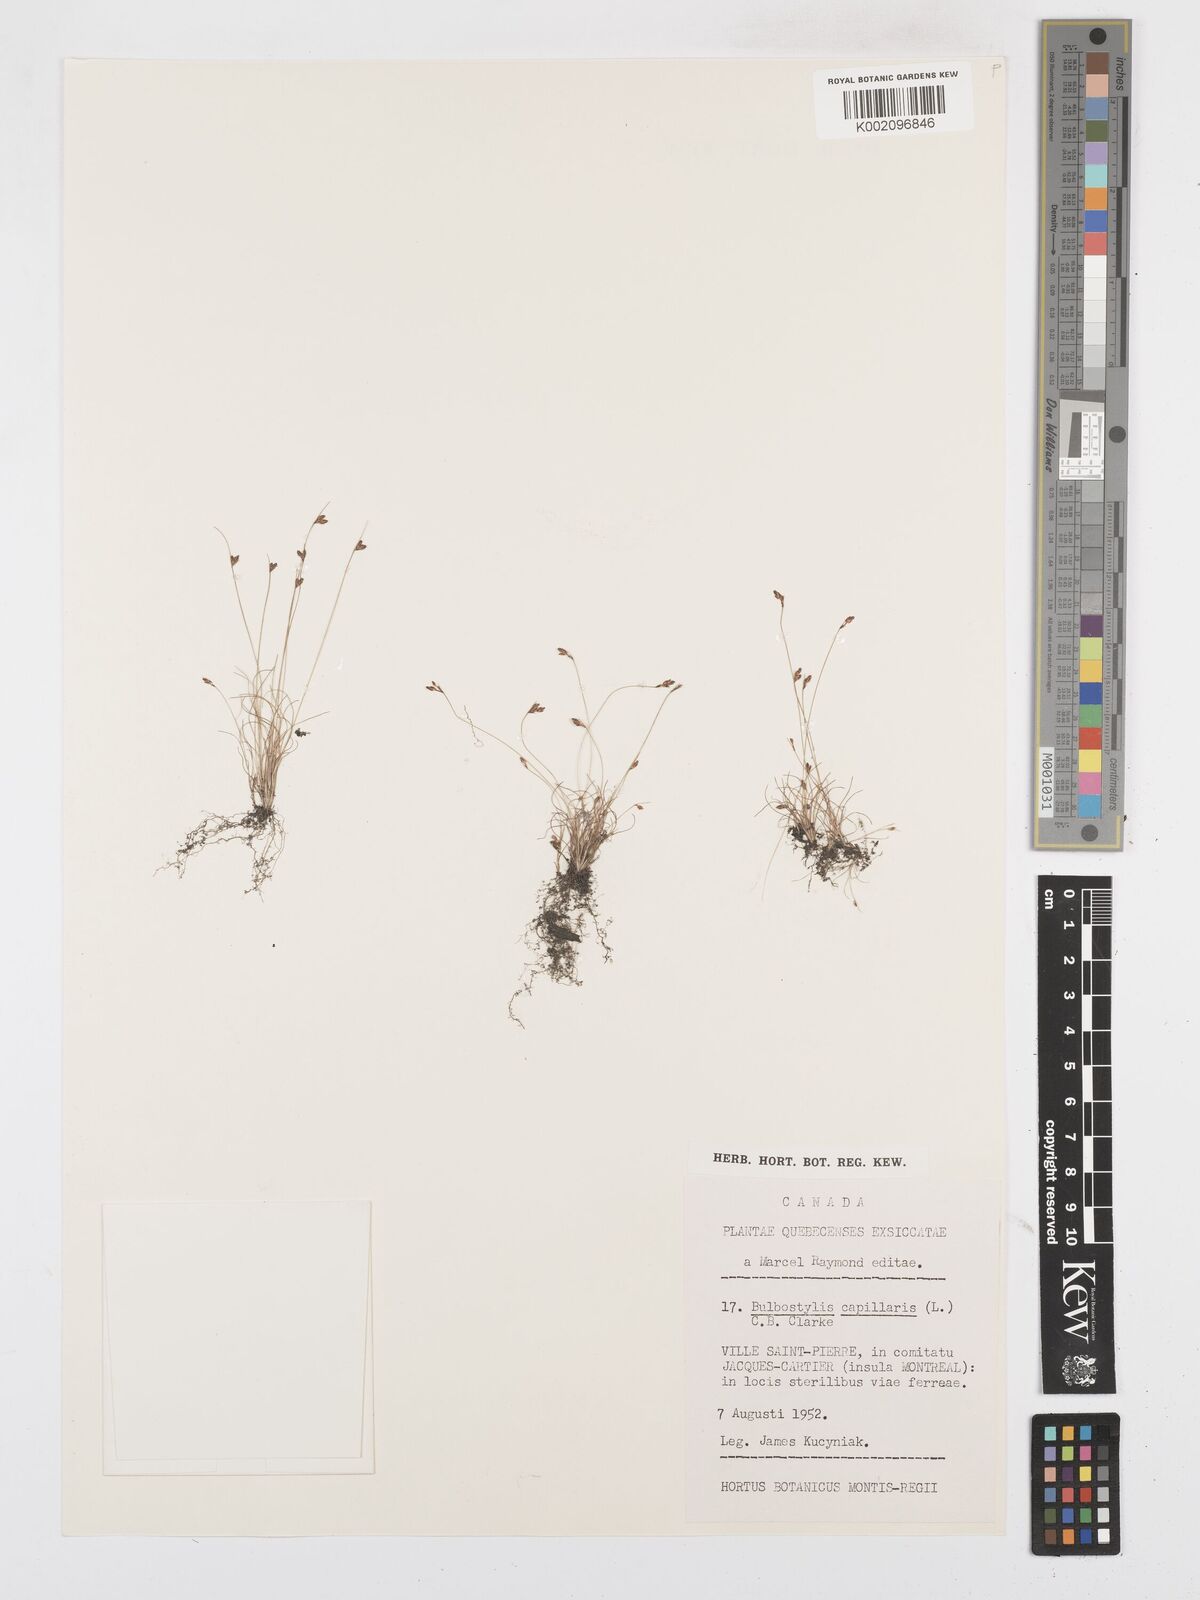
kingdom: Plantae
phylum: Tracheophyta
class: Liliopsida
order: Poales
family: Cyperaceae
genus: Bulbostylis
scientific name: Bulbostylis capillaris
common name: Densetuft hairsedge
